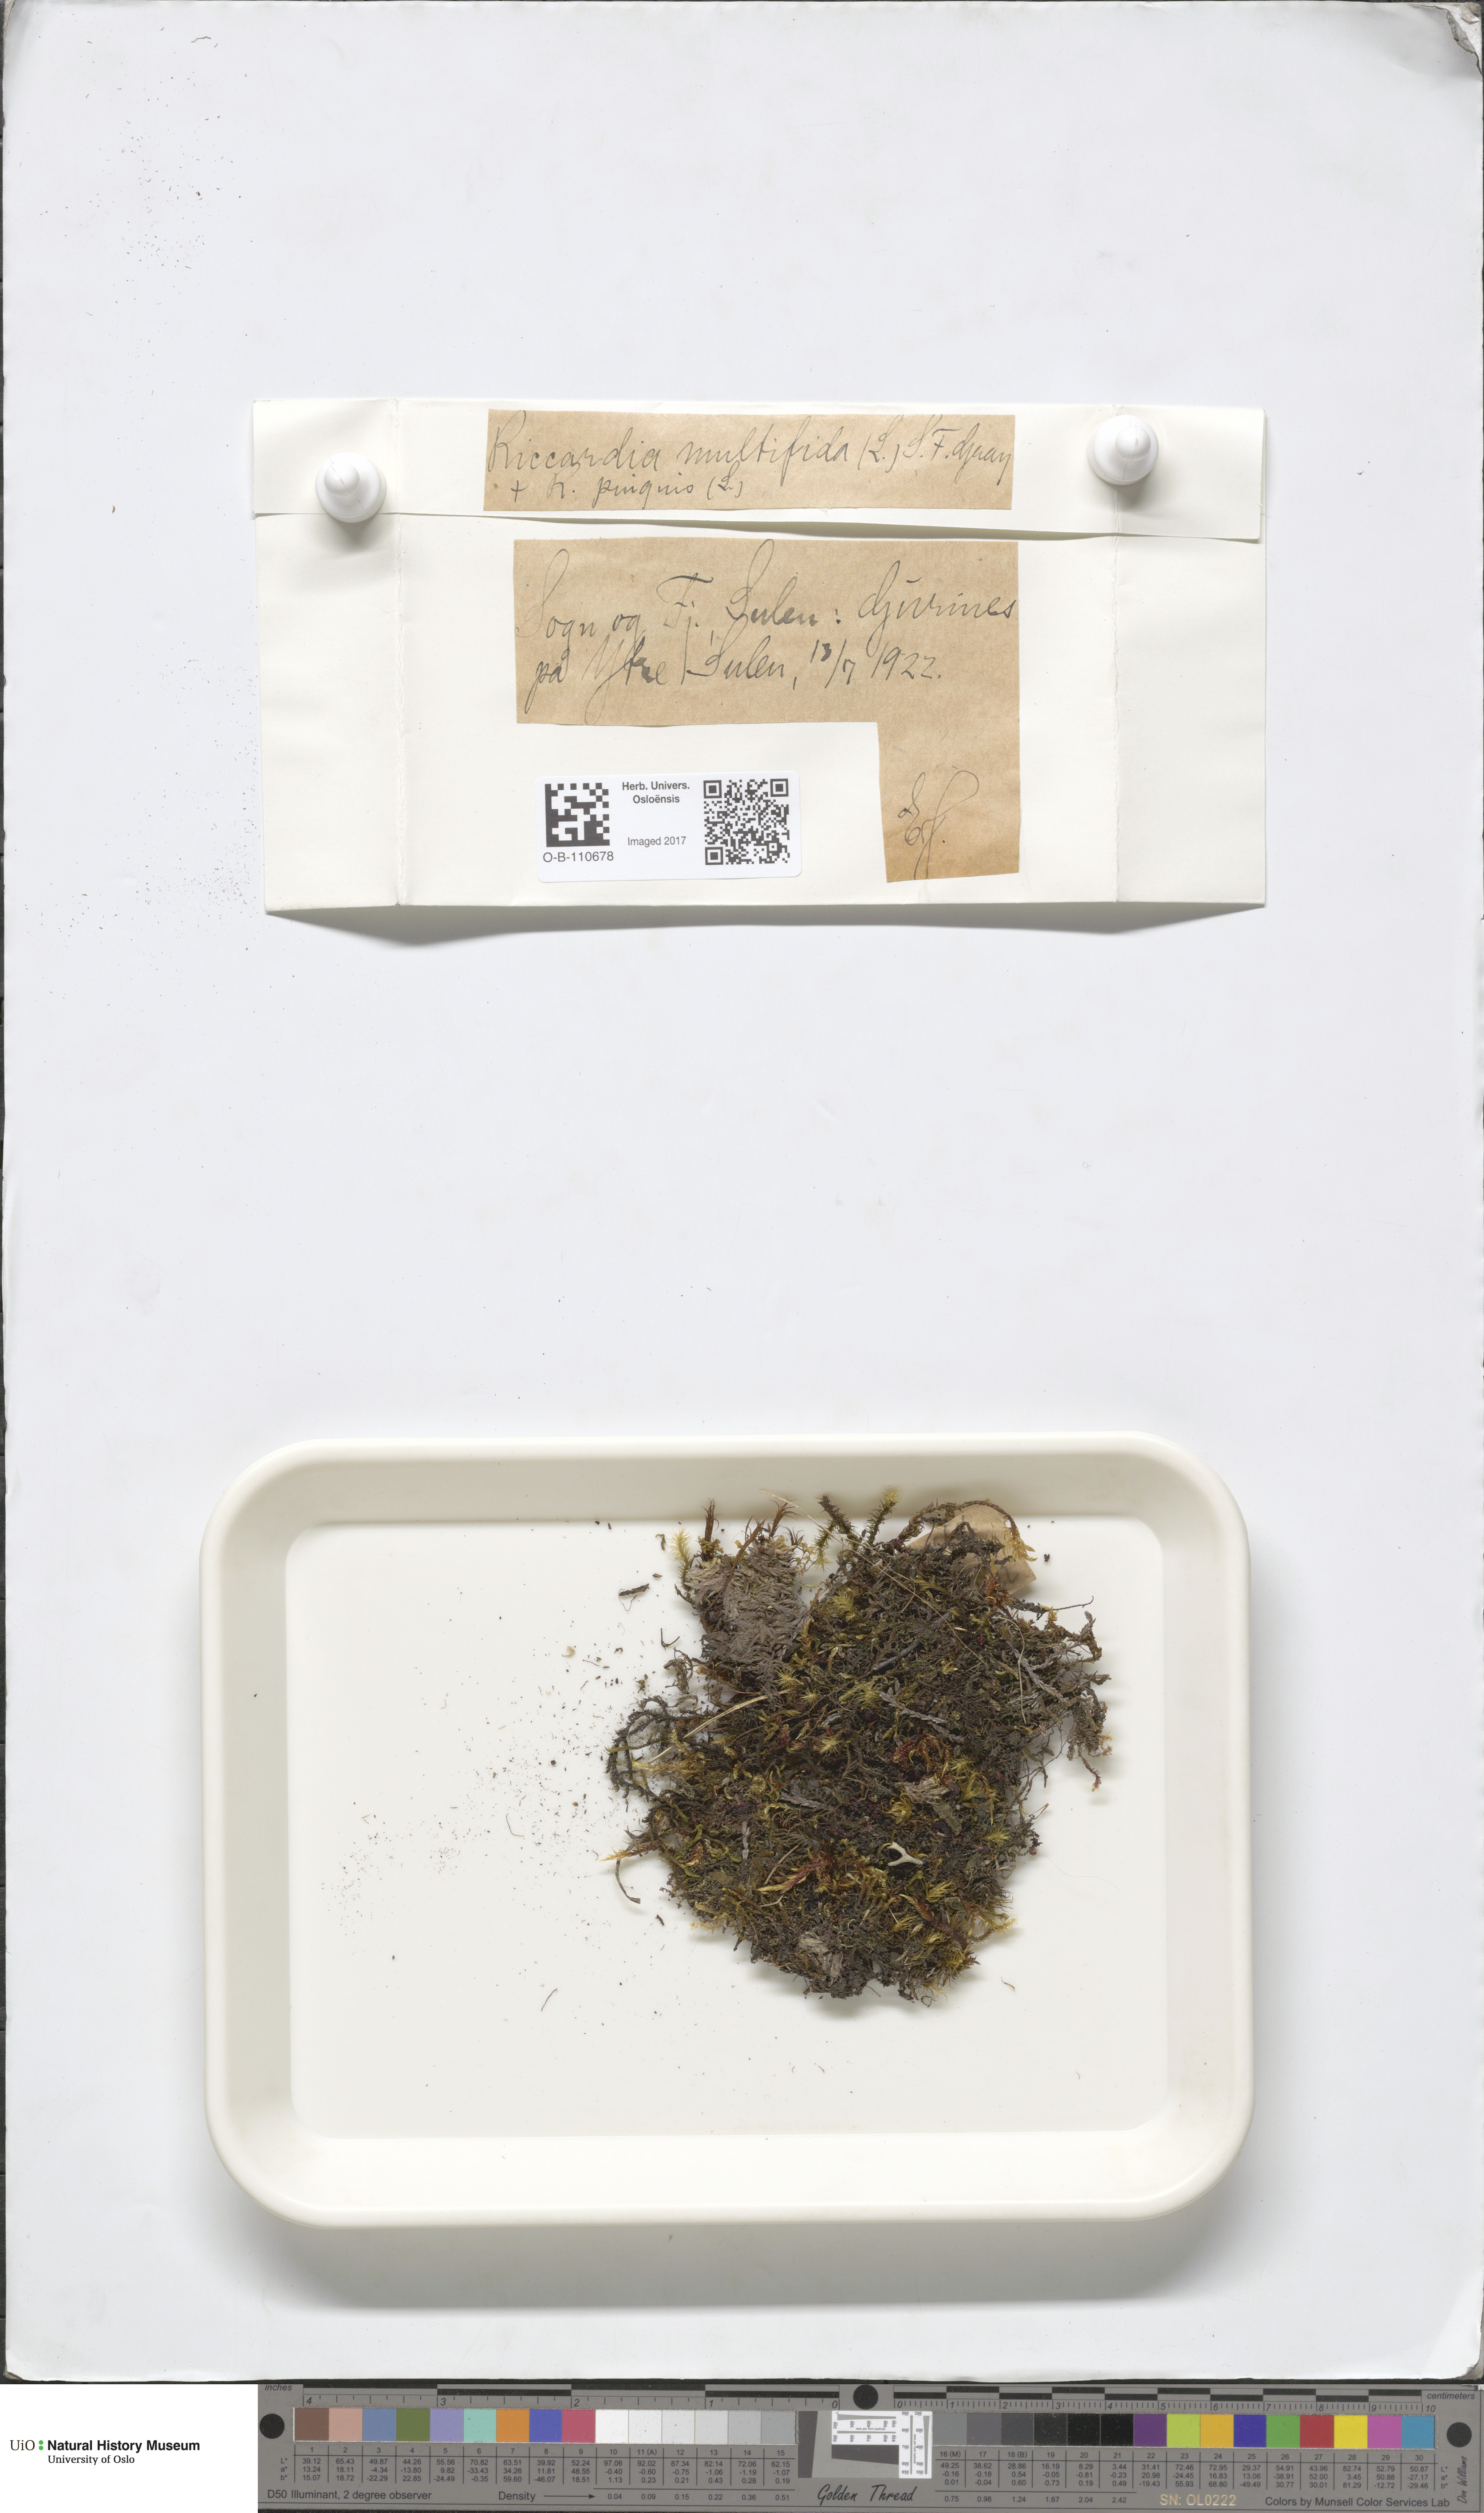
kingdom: Plantae
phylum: Marchantiophyta
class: Jungermanniopsida
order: Metzgeriales
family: Aneuraceae
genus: Riccardia
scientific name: Riccardia palmata
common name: Palmate germanderwort
